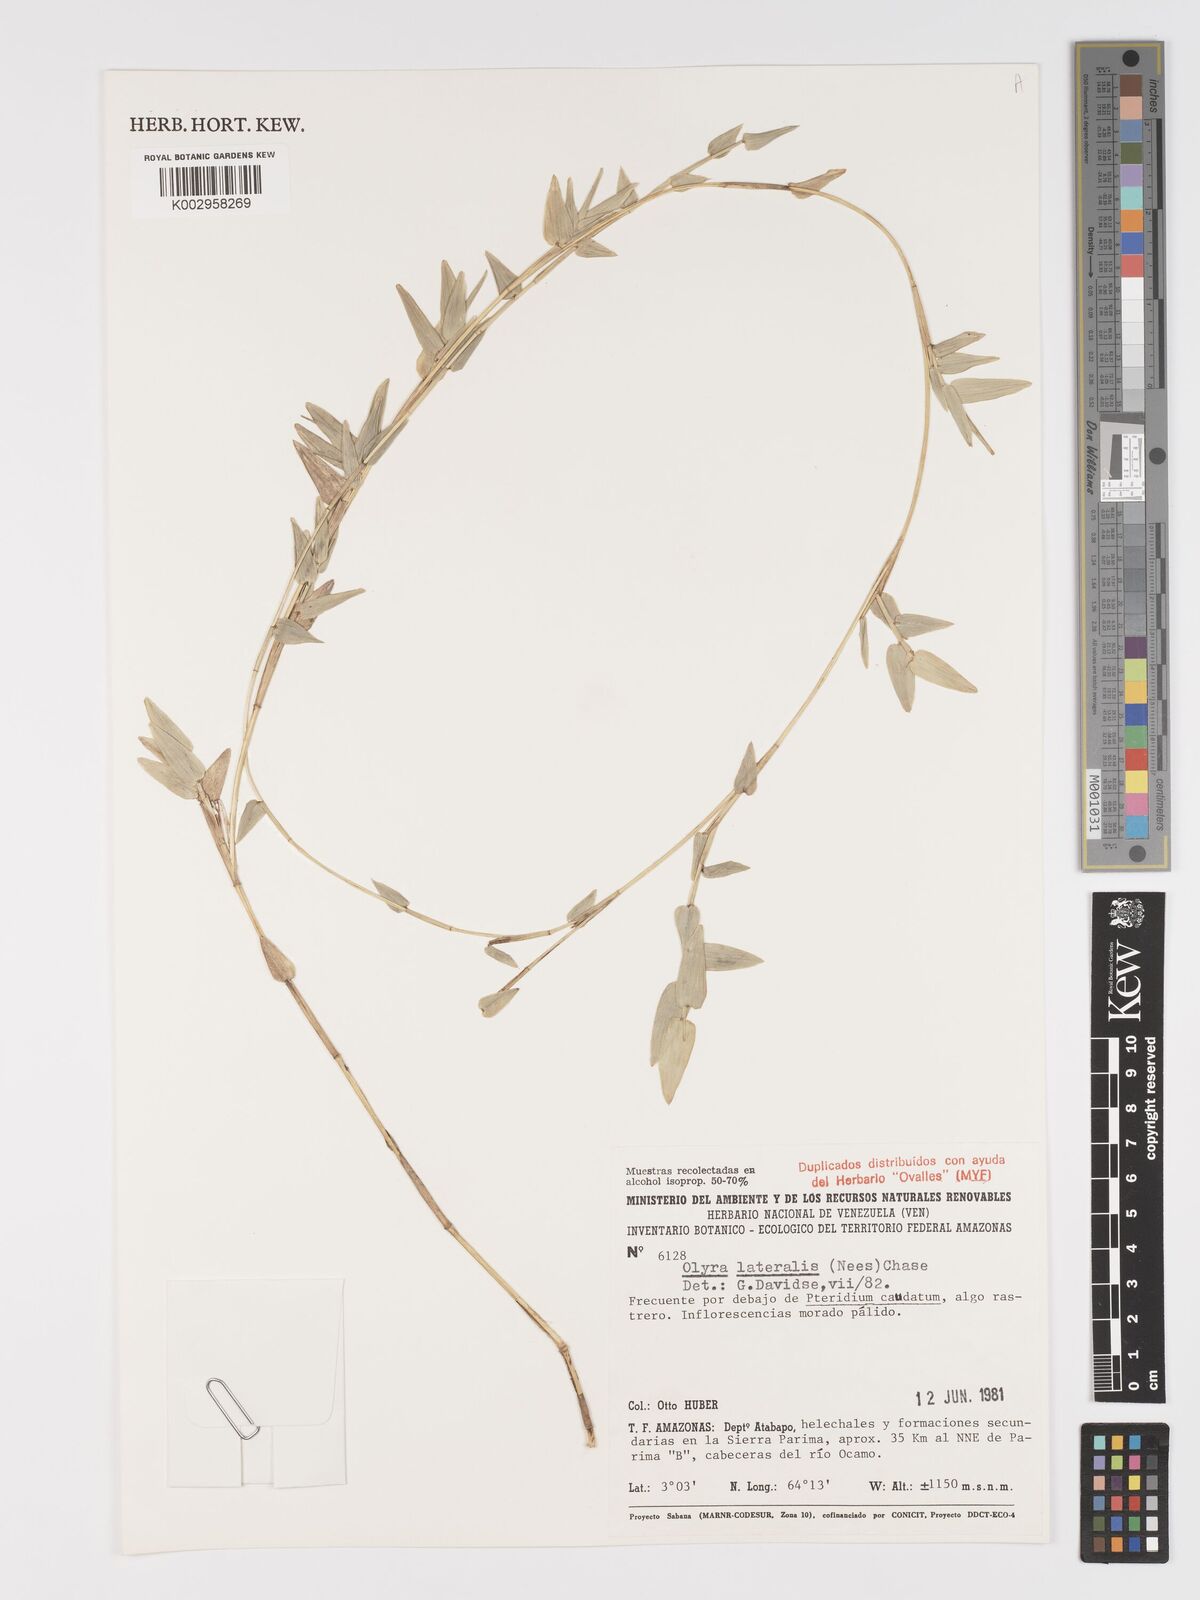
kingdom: Plantae
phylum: Tracheophyta
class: Liliopsida
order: Poales
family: Poaceae
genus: Parodiolyra
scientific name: Parodiolyra lateralis
